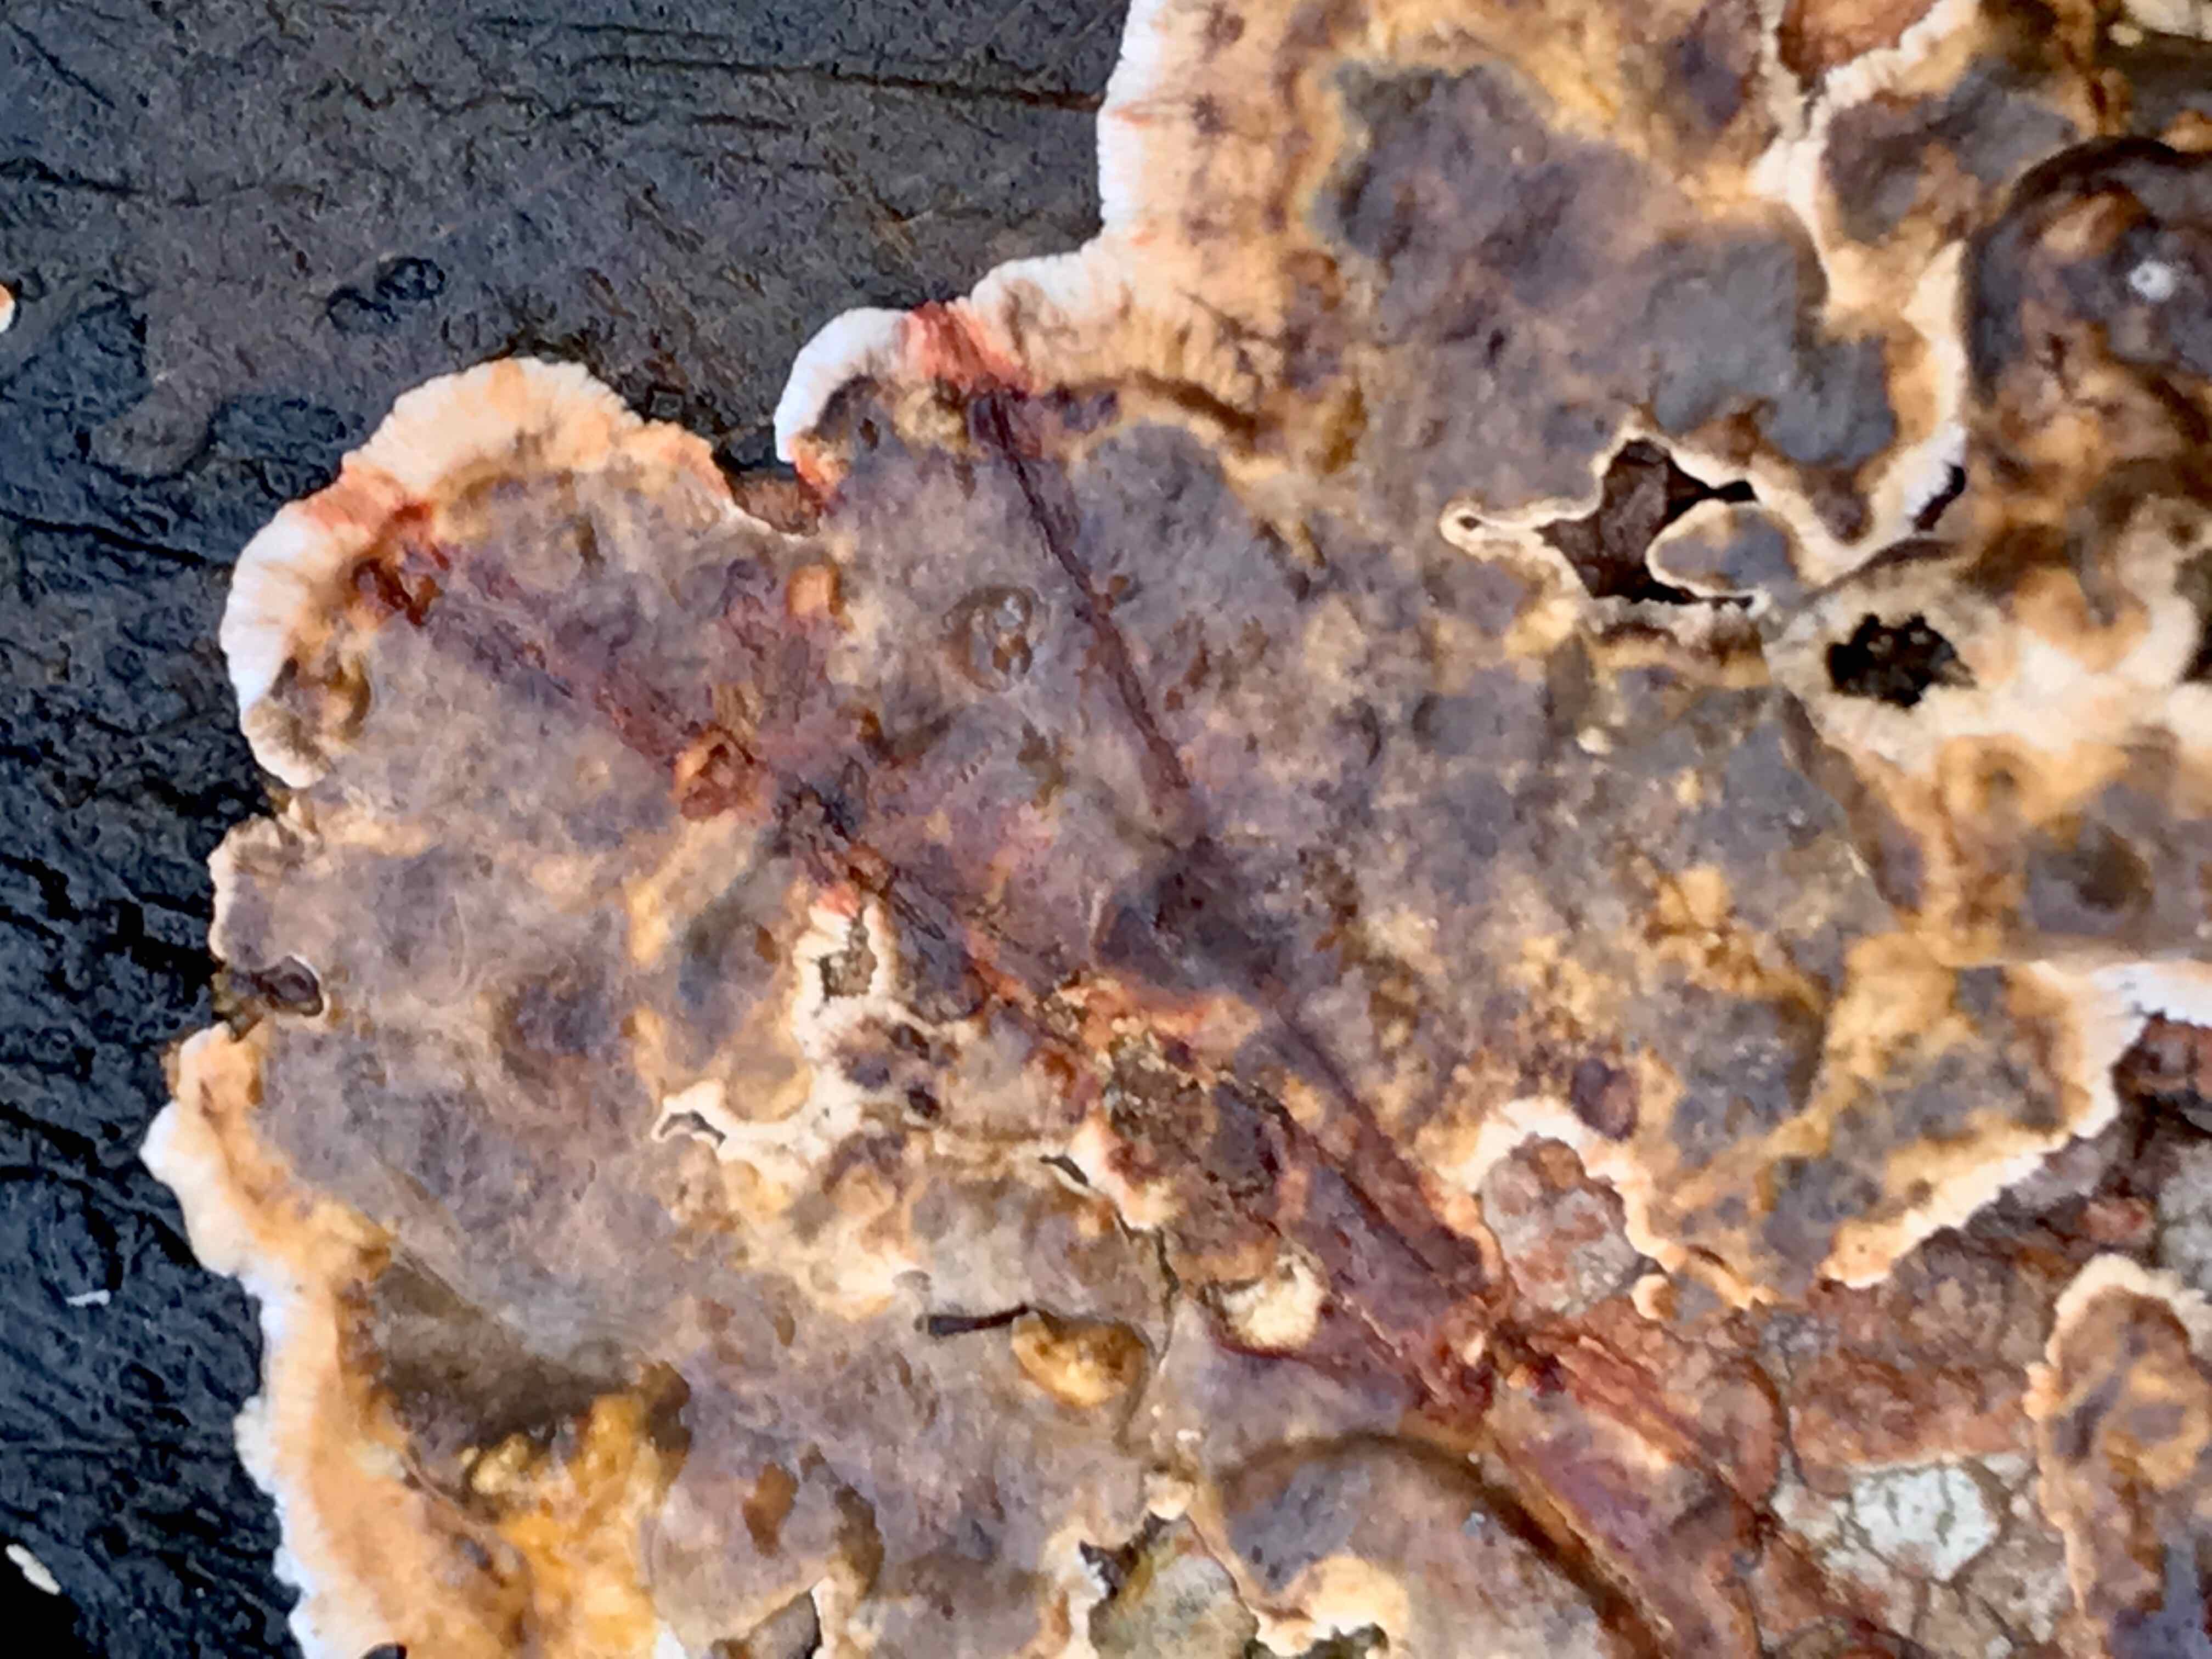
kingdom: Fungi
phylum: Basidiomycota
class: Agaricomycetes
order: Russulales
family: Stereaceae
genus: Stereum
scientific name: Stereum rugosum
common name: rynket lædersvamp
